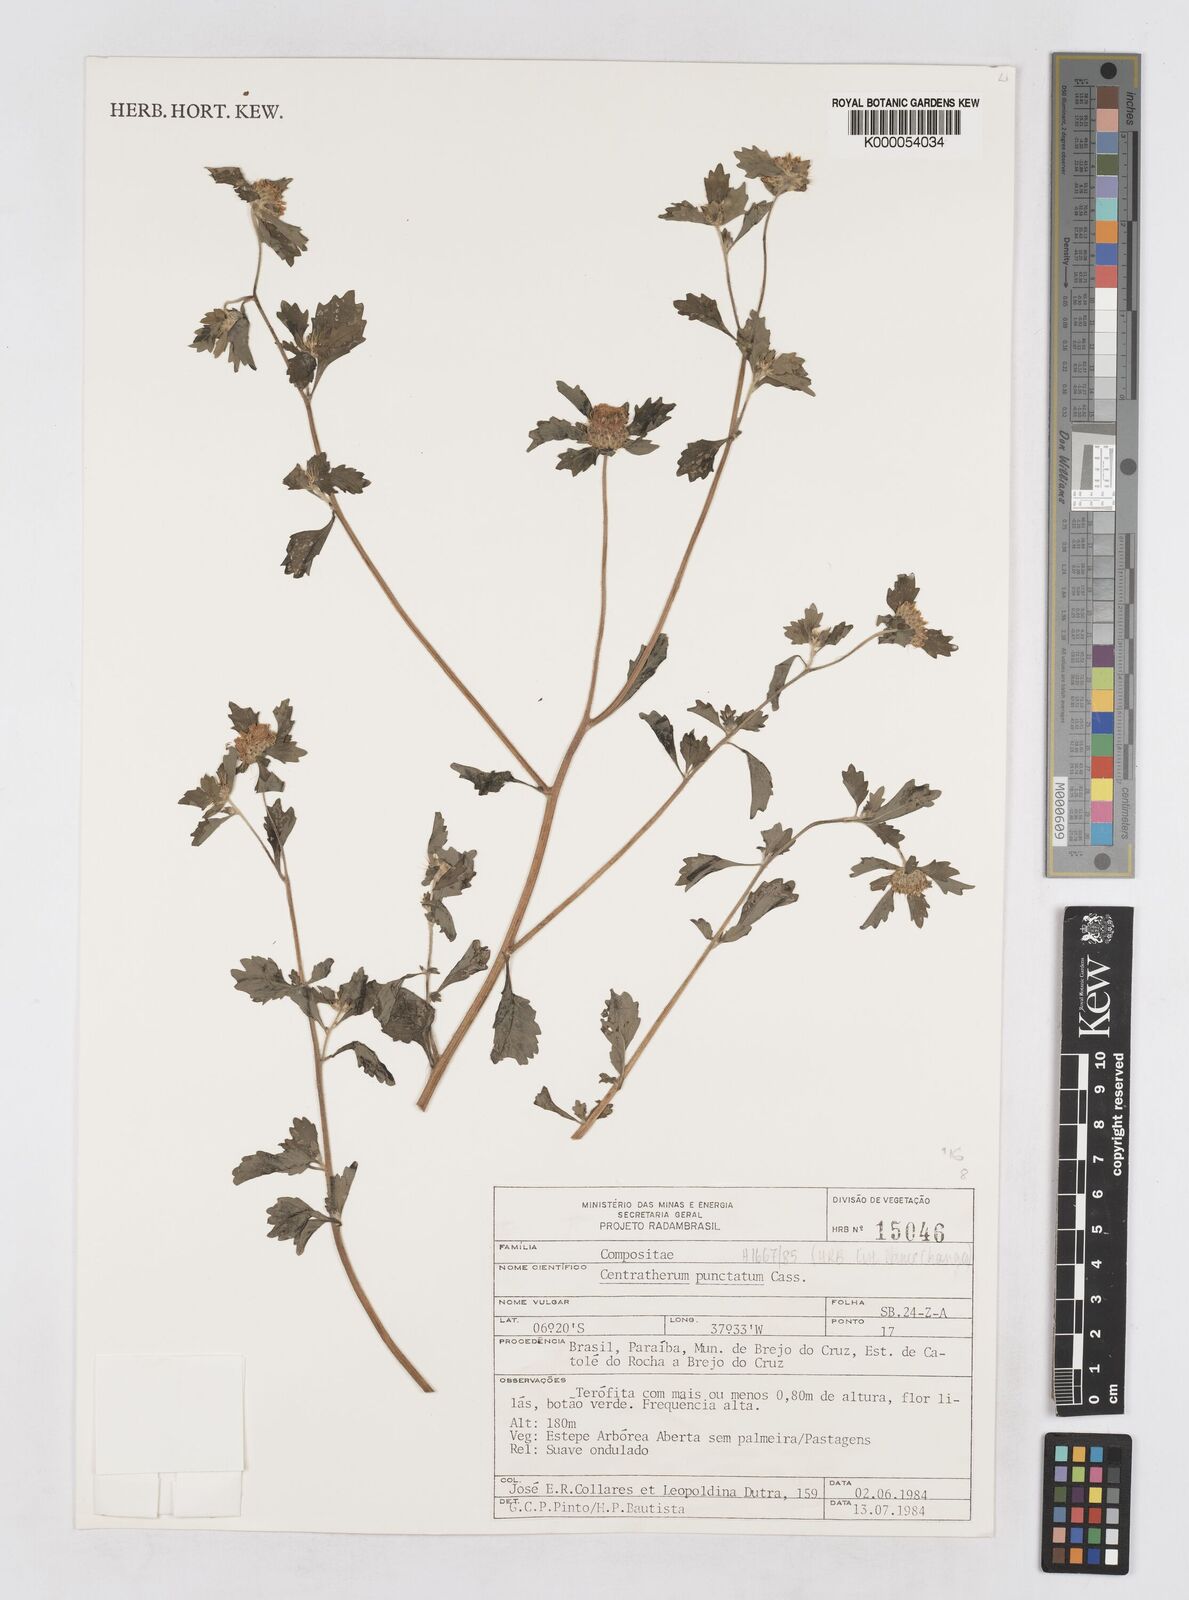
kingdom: Plantae
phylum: Tracheophyta
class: Magnoliopsida
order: Asterales
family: Asteraceae
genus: Centratherum
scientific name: Centratherum punctatum
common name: Larkdaisy
